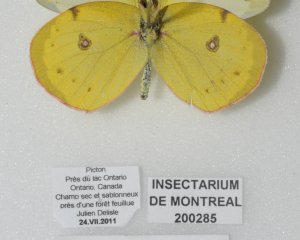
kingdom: Animalia
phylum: Arthropoda
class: Insecta
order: Lepidoptera
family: Pieridae
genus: Colias
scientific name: Colias philodice
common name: Clouded Sulphur
